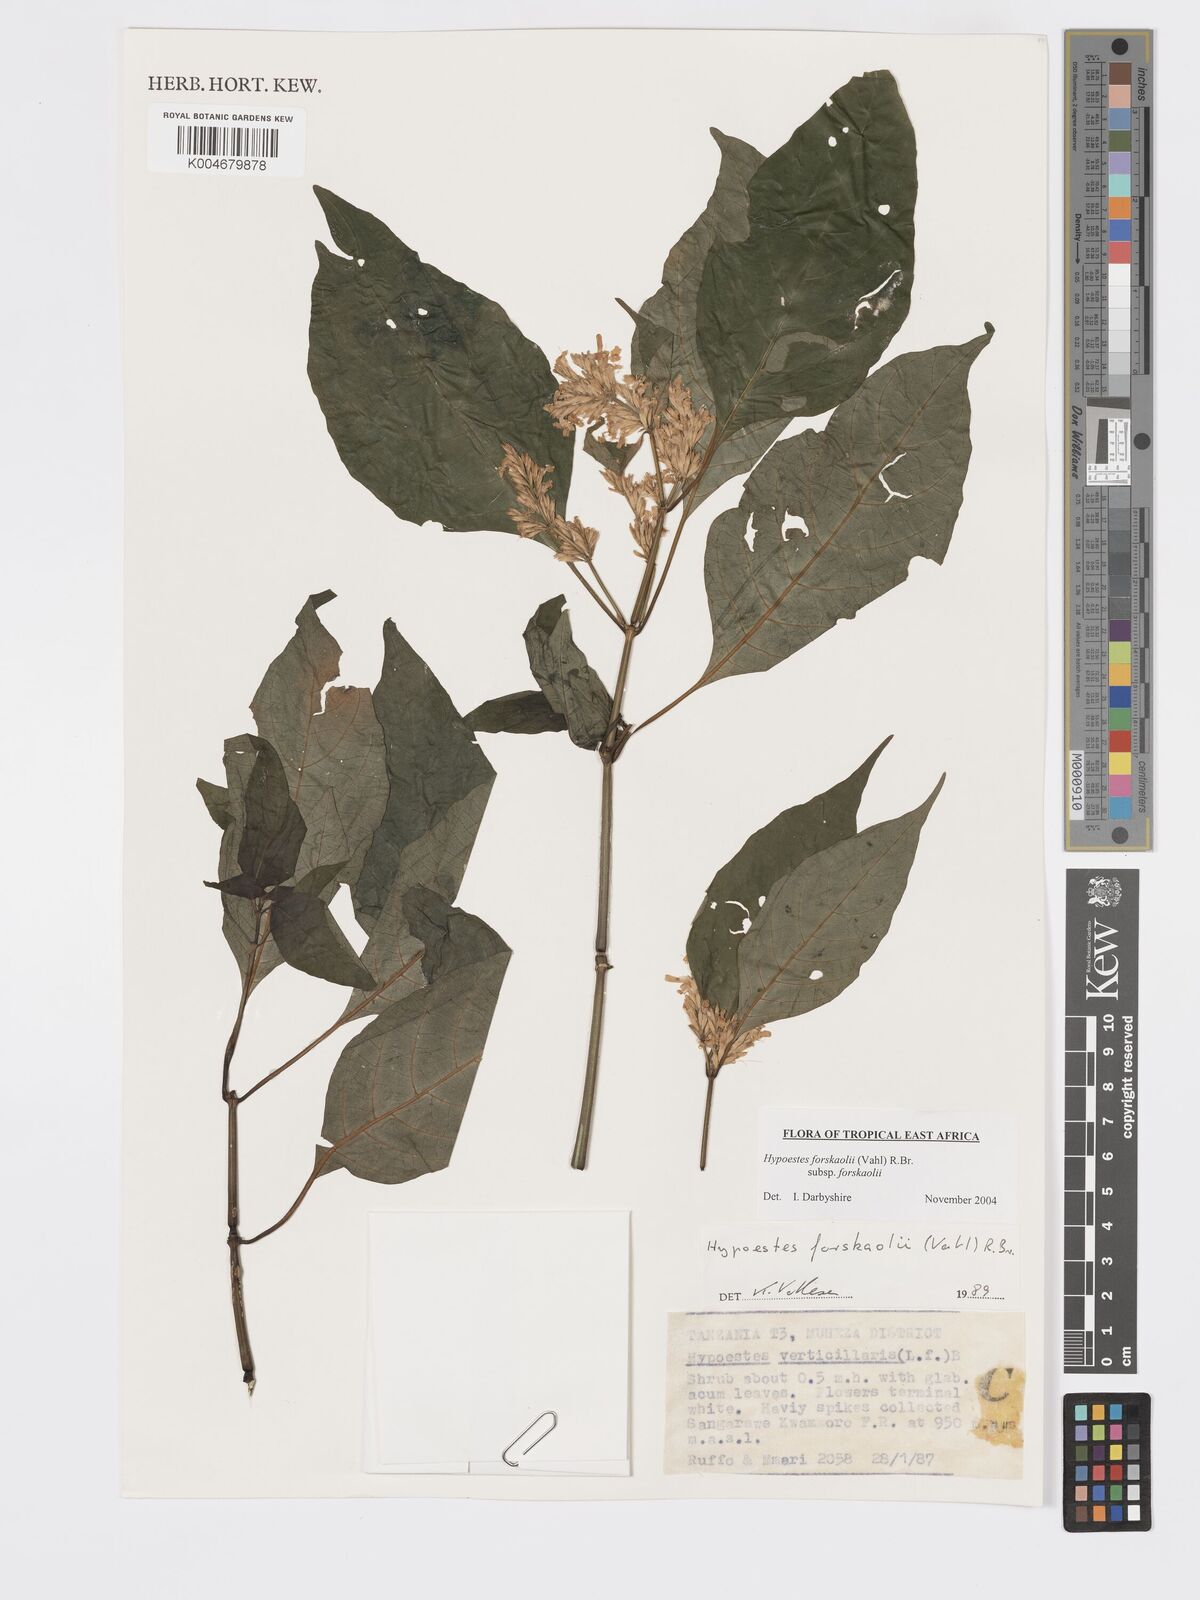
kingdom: Plantae
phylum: Tracheophyta
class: Magnoliopsida
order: Lamiales
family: Acanthaceae
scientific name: Acanthaceae
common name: Acanthaceae
